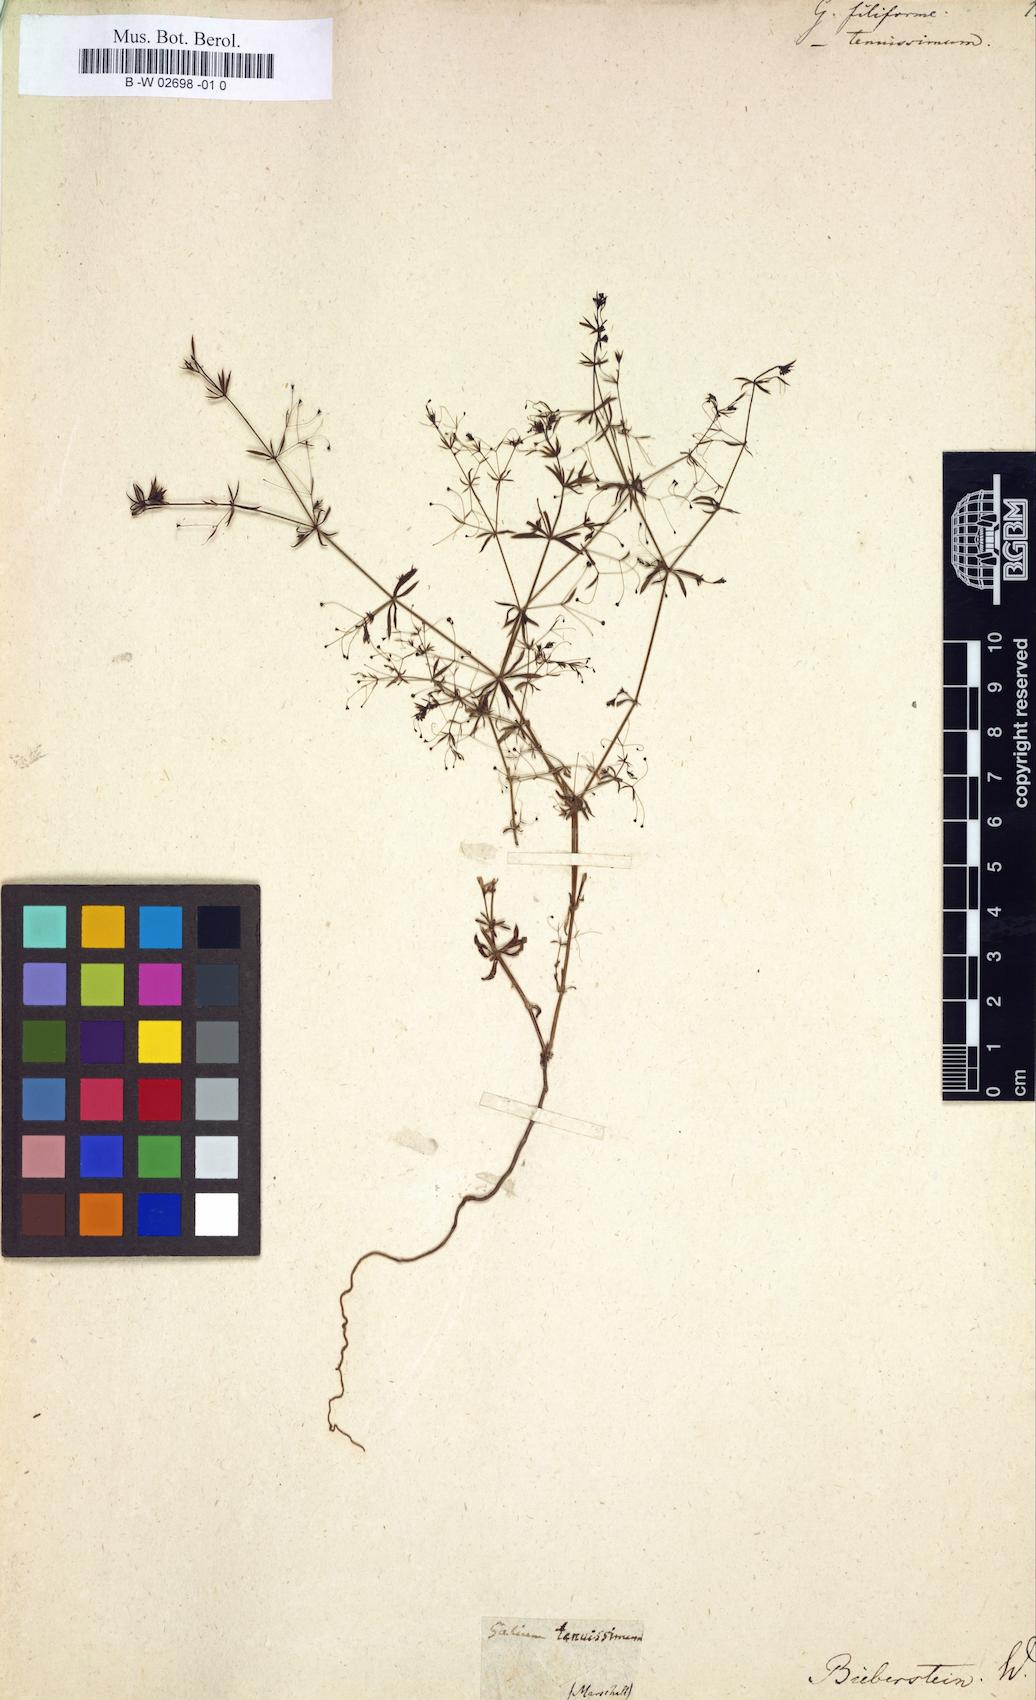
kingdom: Plantae
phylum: Tracheophyta
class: Magnoliopsida
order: Gentianales
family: Rubiaceae
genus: Galium
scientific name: Galium
